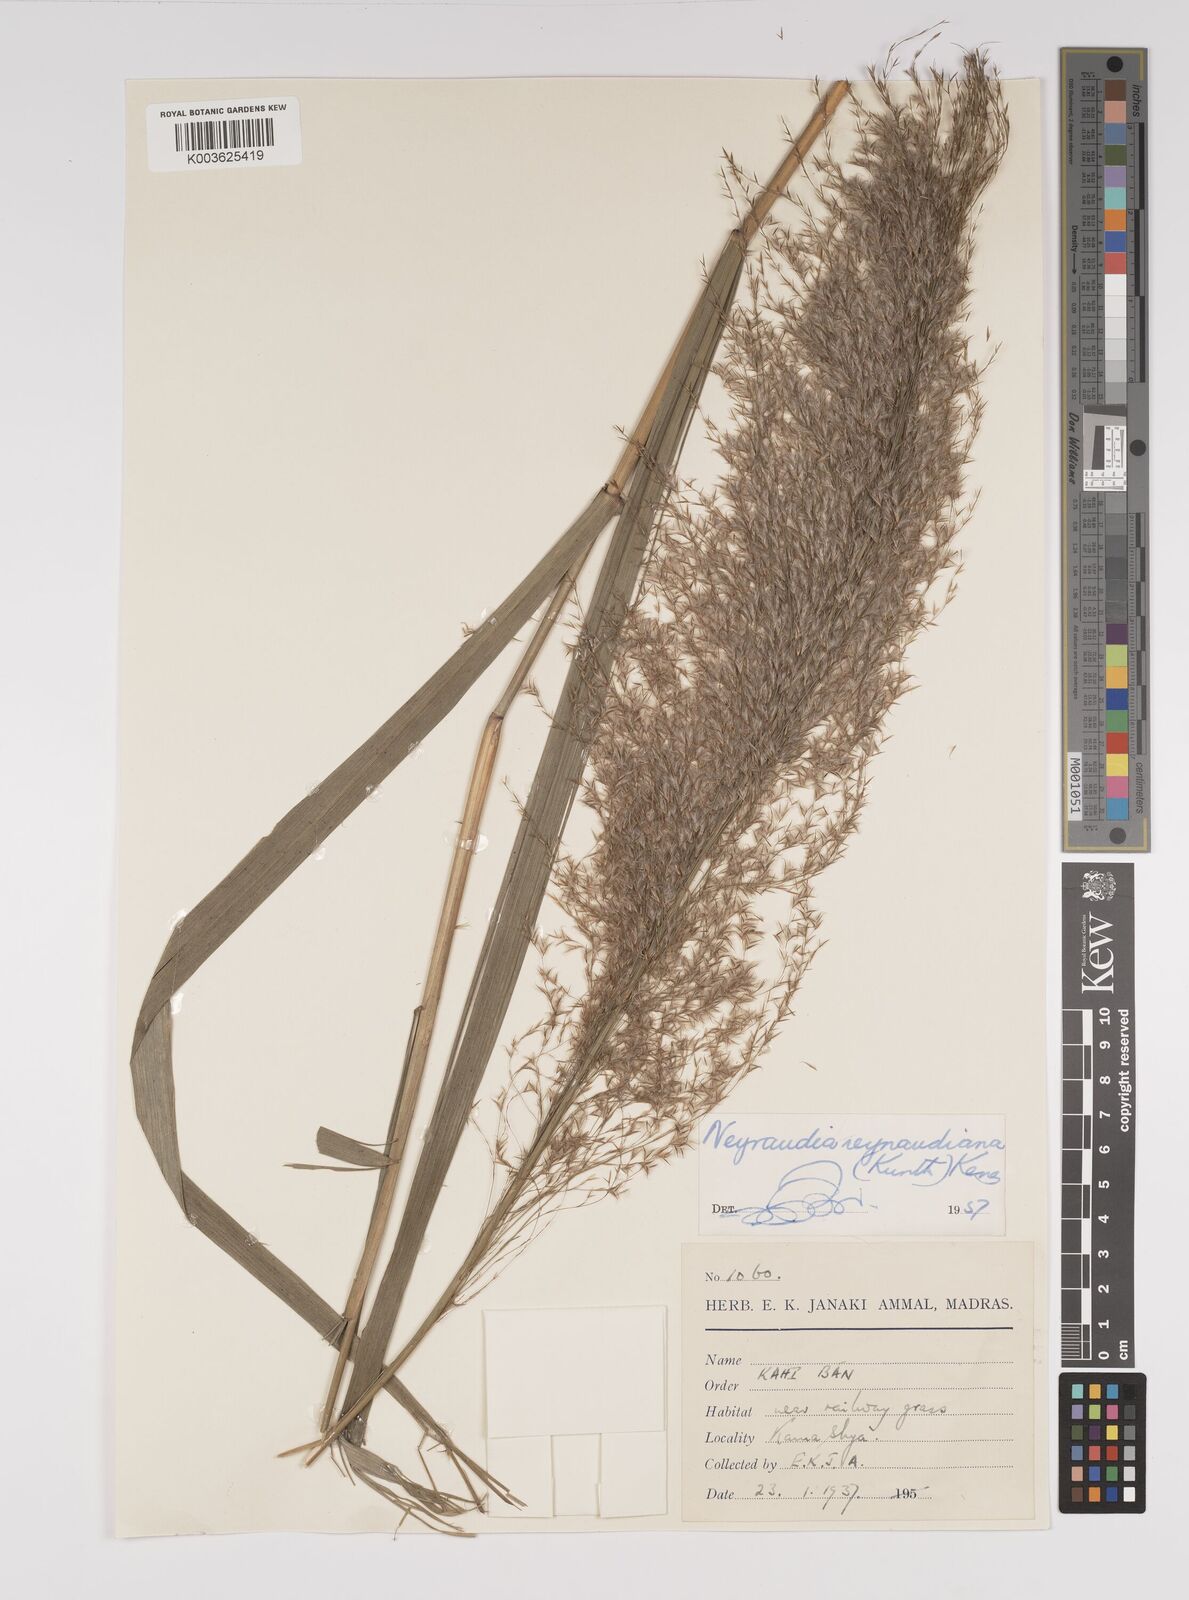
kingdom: Plantae
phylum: Tracheophyta
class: Liliopsida
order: Poales
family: Poaceae
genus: Neyraudia
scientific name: Neyraudia reynaudiana
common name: Silkreed
